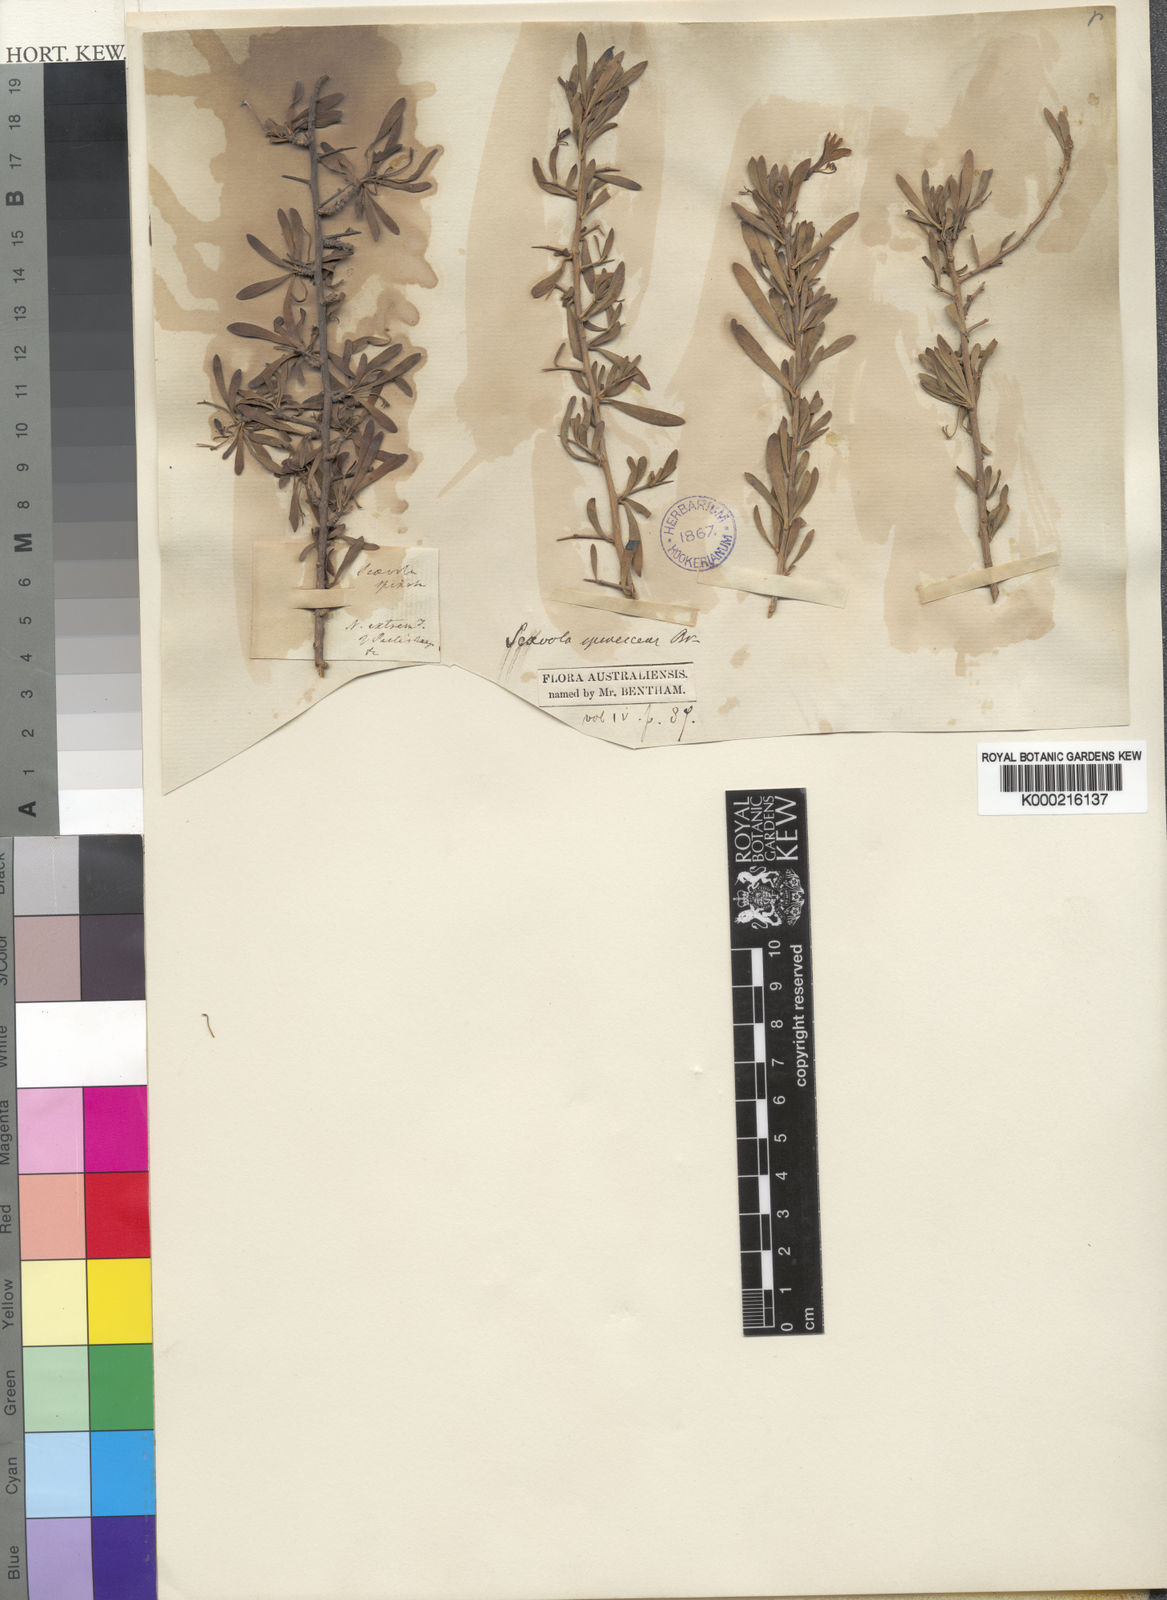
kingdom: Plantae
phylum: Tracheophyta
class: Magnoliopsida
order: Asterales
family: Goodeniaceae
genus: Scaevola
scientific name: Scaevola spinescens
